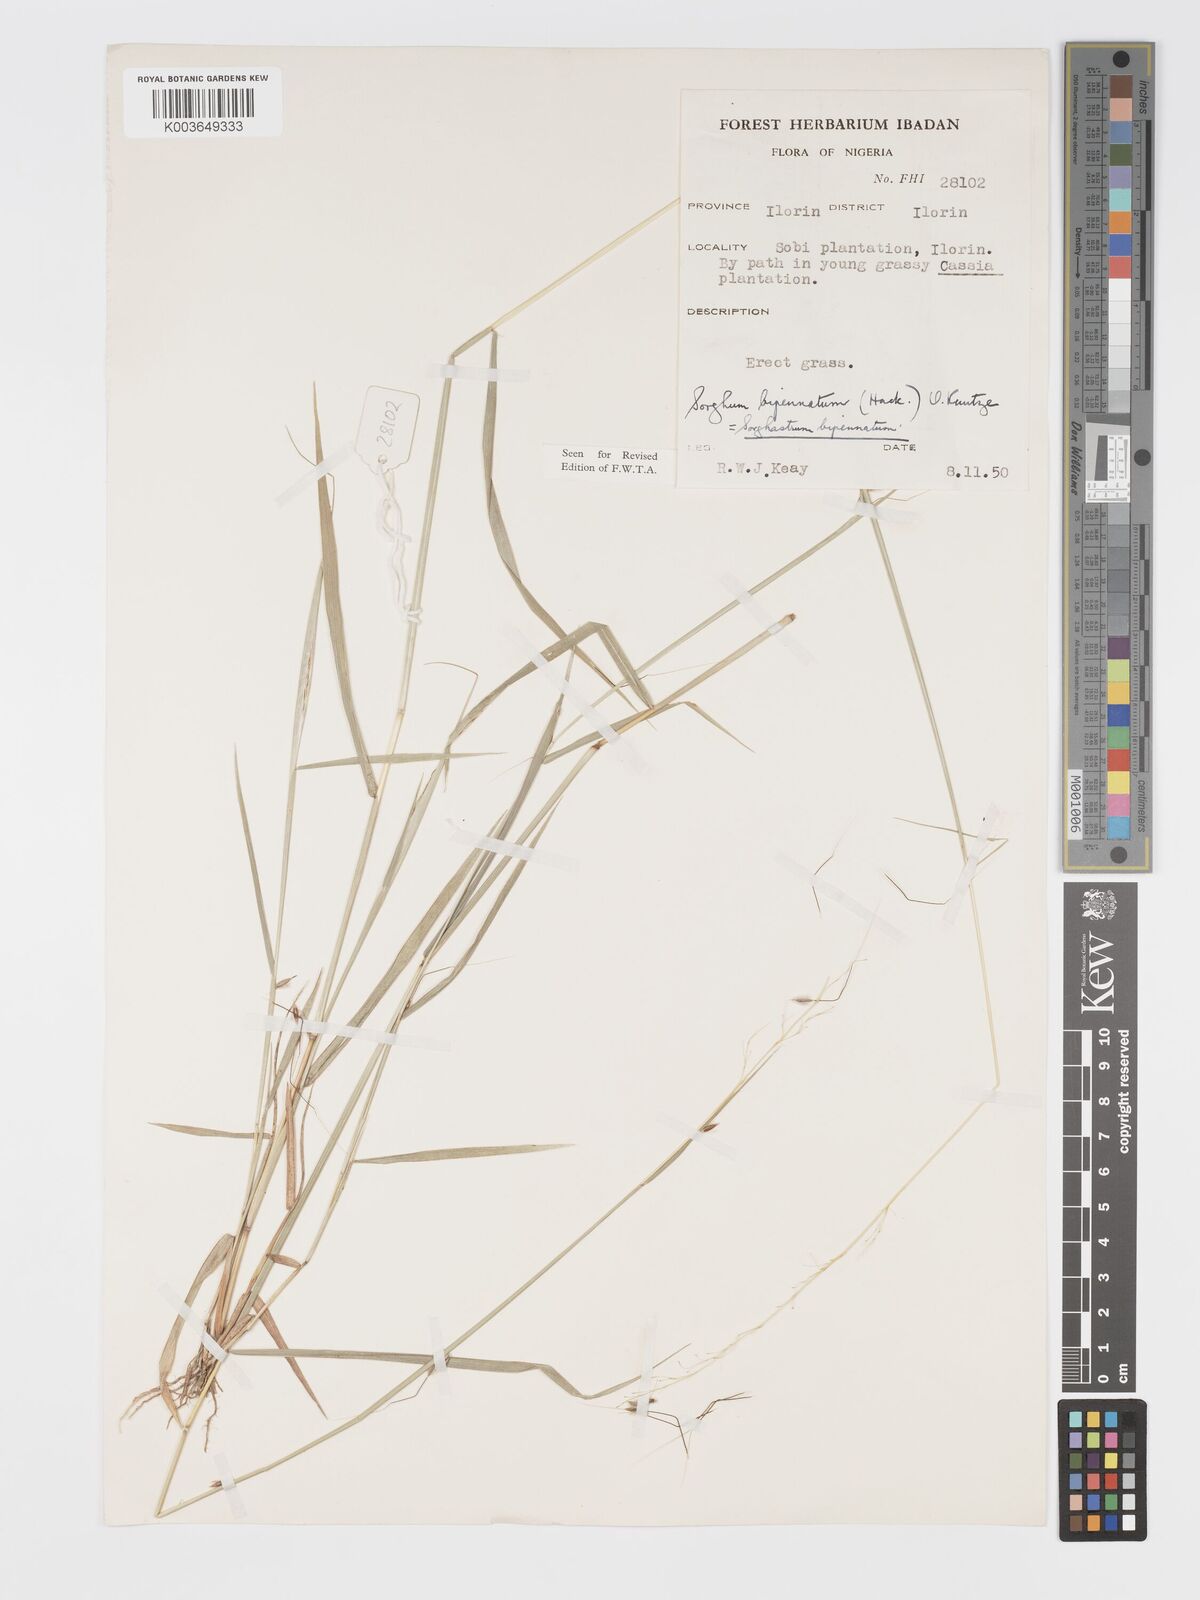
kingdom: Plantae
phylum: Tracheophyta
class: Liliopsida
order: Poales
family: Poaceae
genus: Sorghastrum
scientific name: Sorghastrum incompletum
